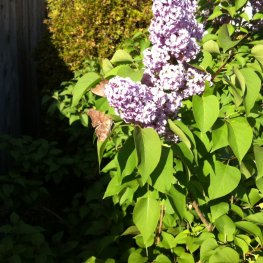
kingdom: Animalia
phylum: Arthropoda
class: Insecta
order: Lepidoptera
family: Nymphalidae
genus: Polygonia
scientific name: Polygonia interrogationis
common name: Question Mark
